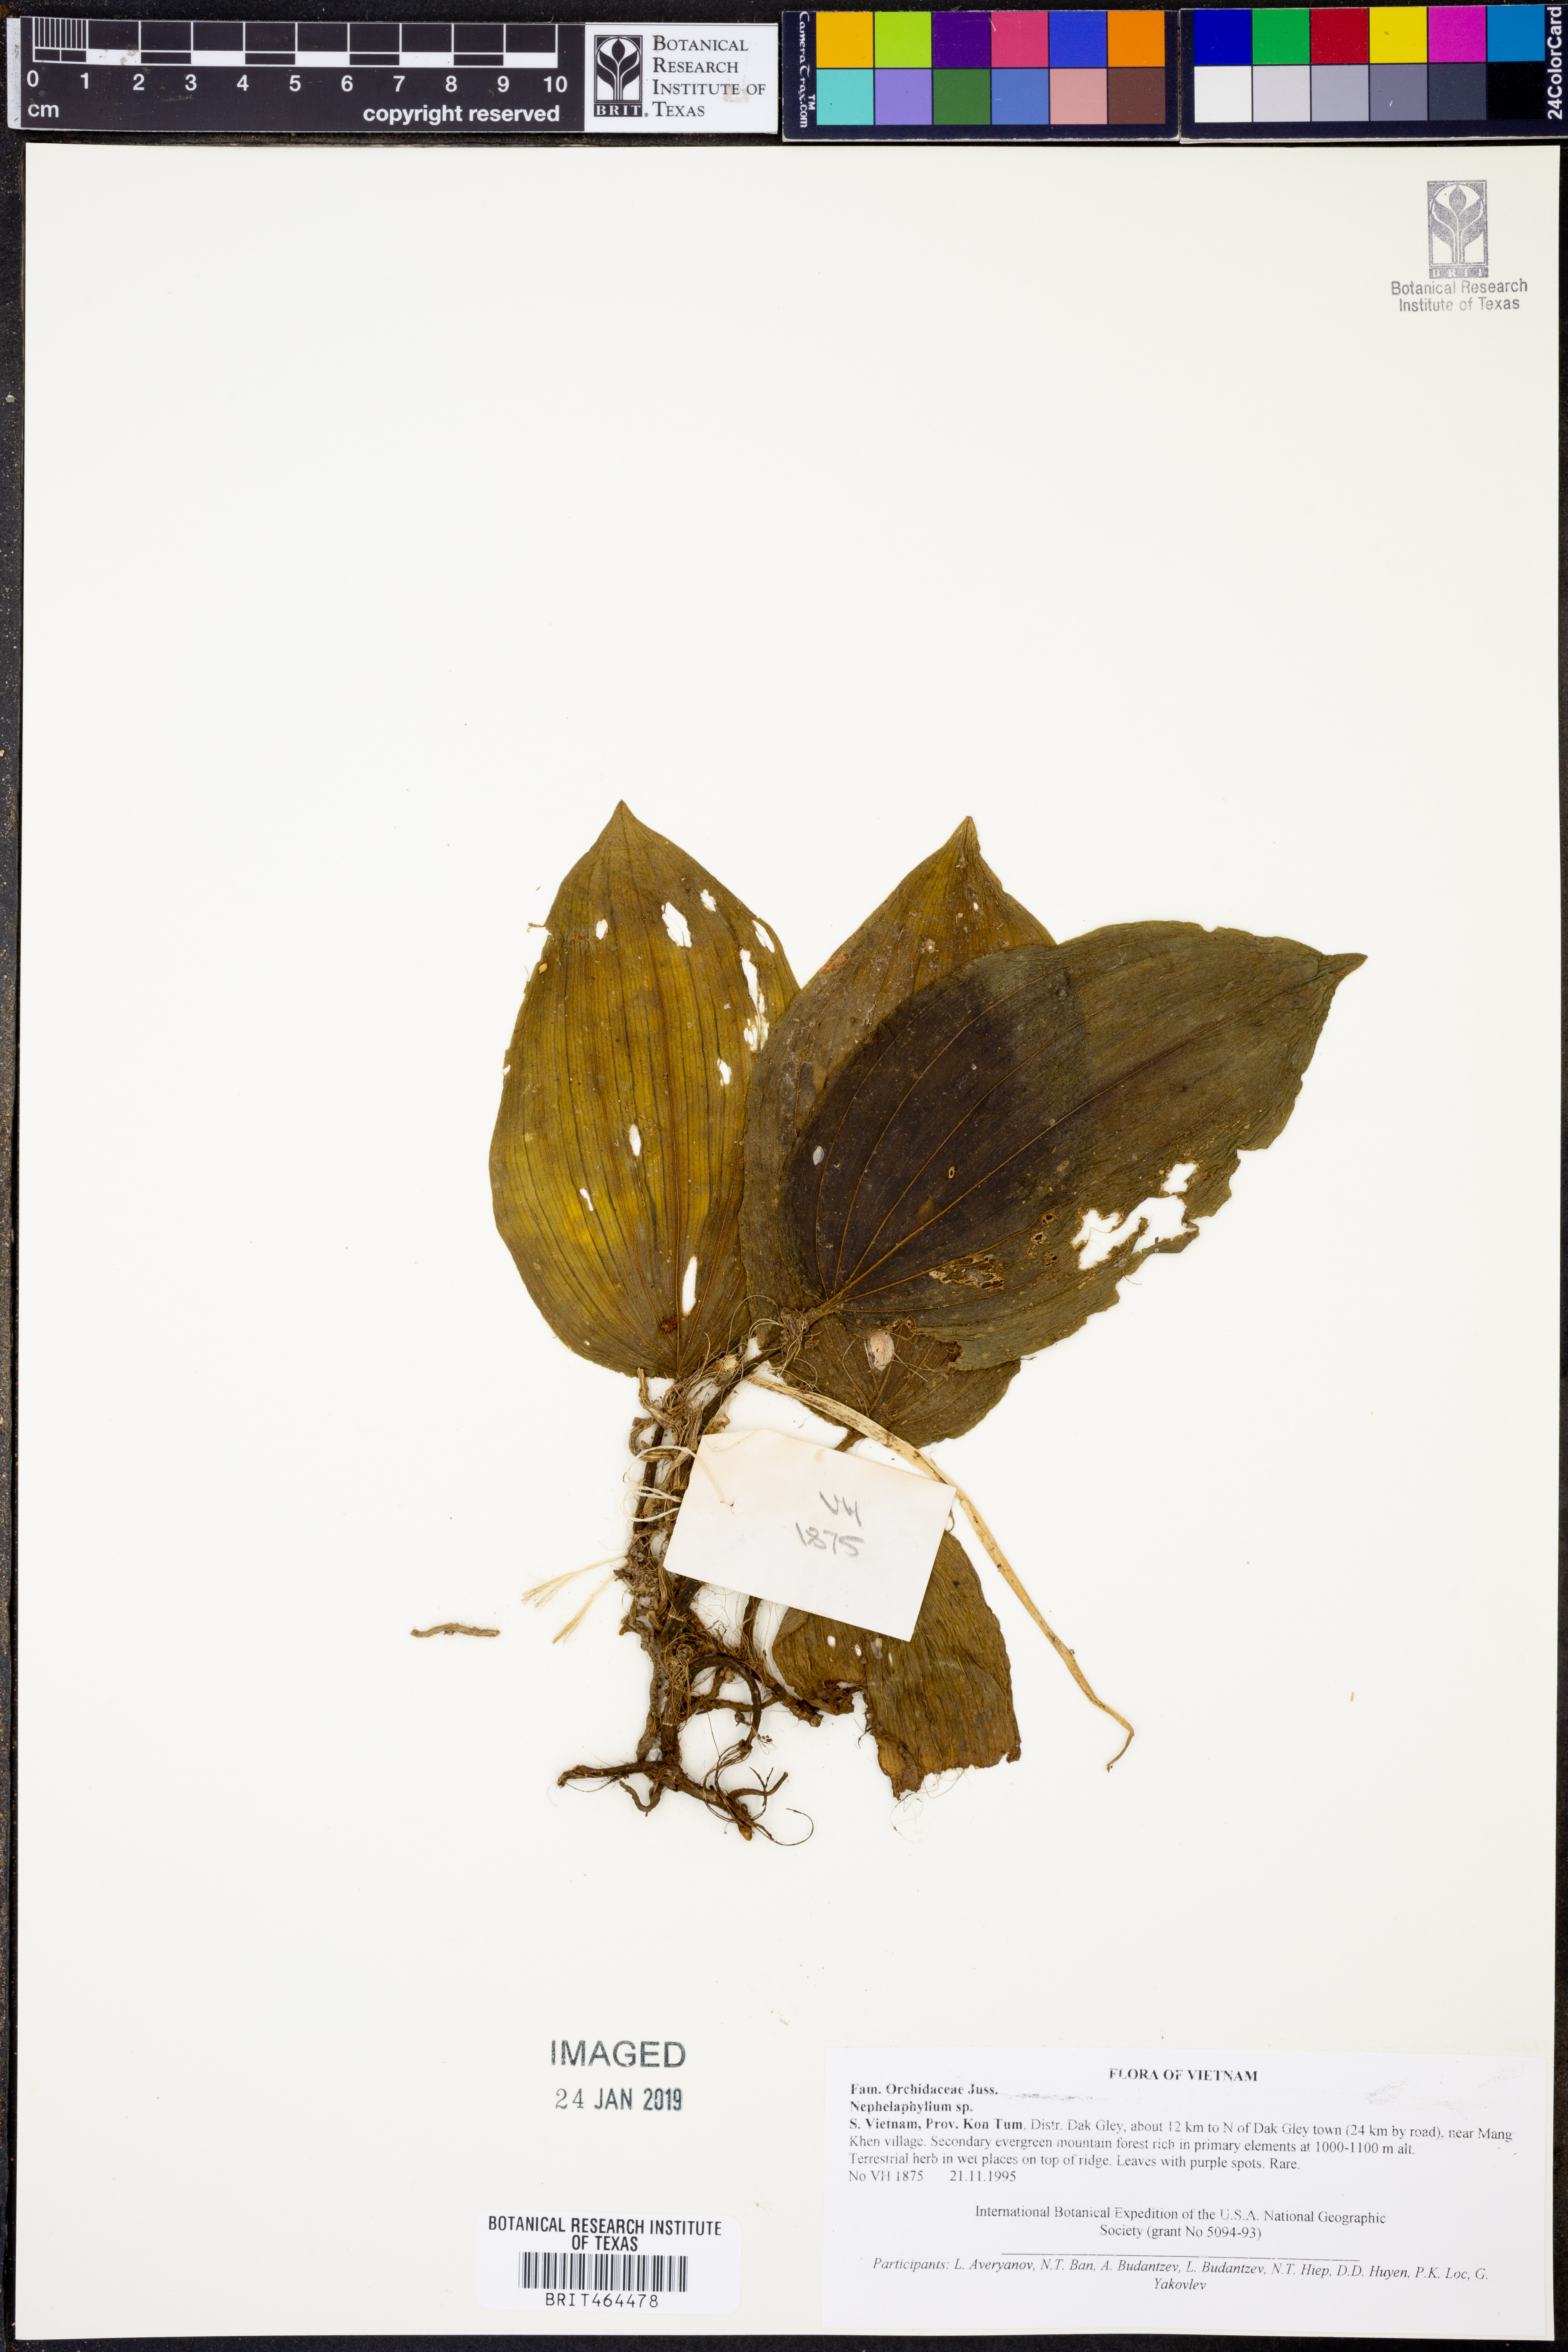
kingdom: Plantae
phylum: Tracheophyta
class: Liliopsida
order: Asparagales
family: Orchidaceae
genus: Nephelaphyllum
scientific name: Nephelaphyllum
